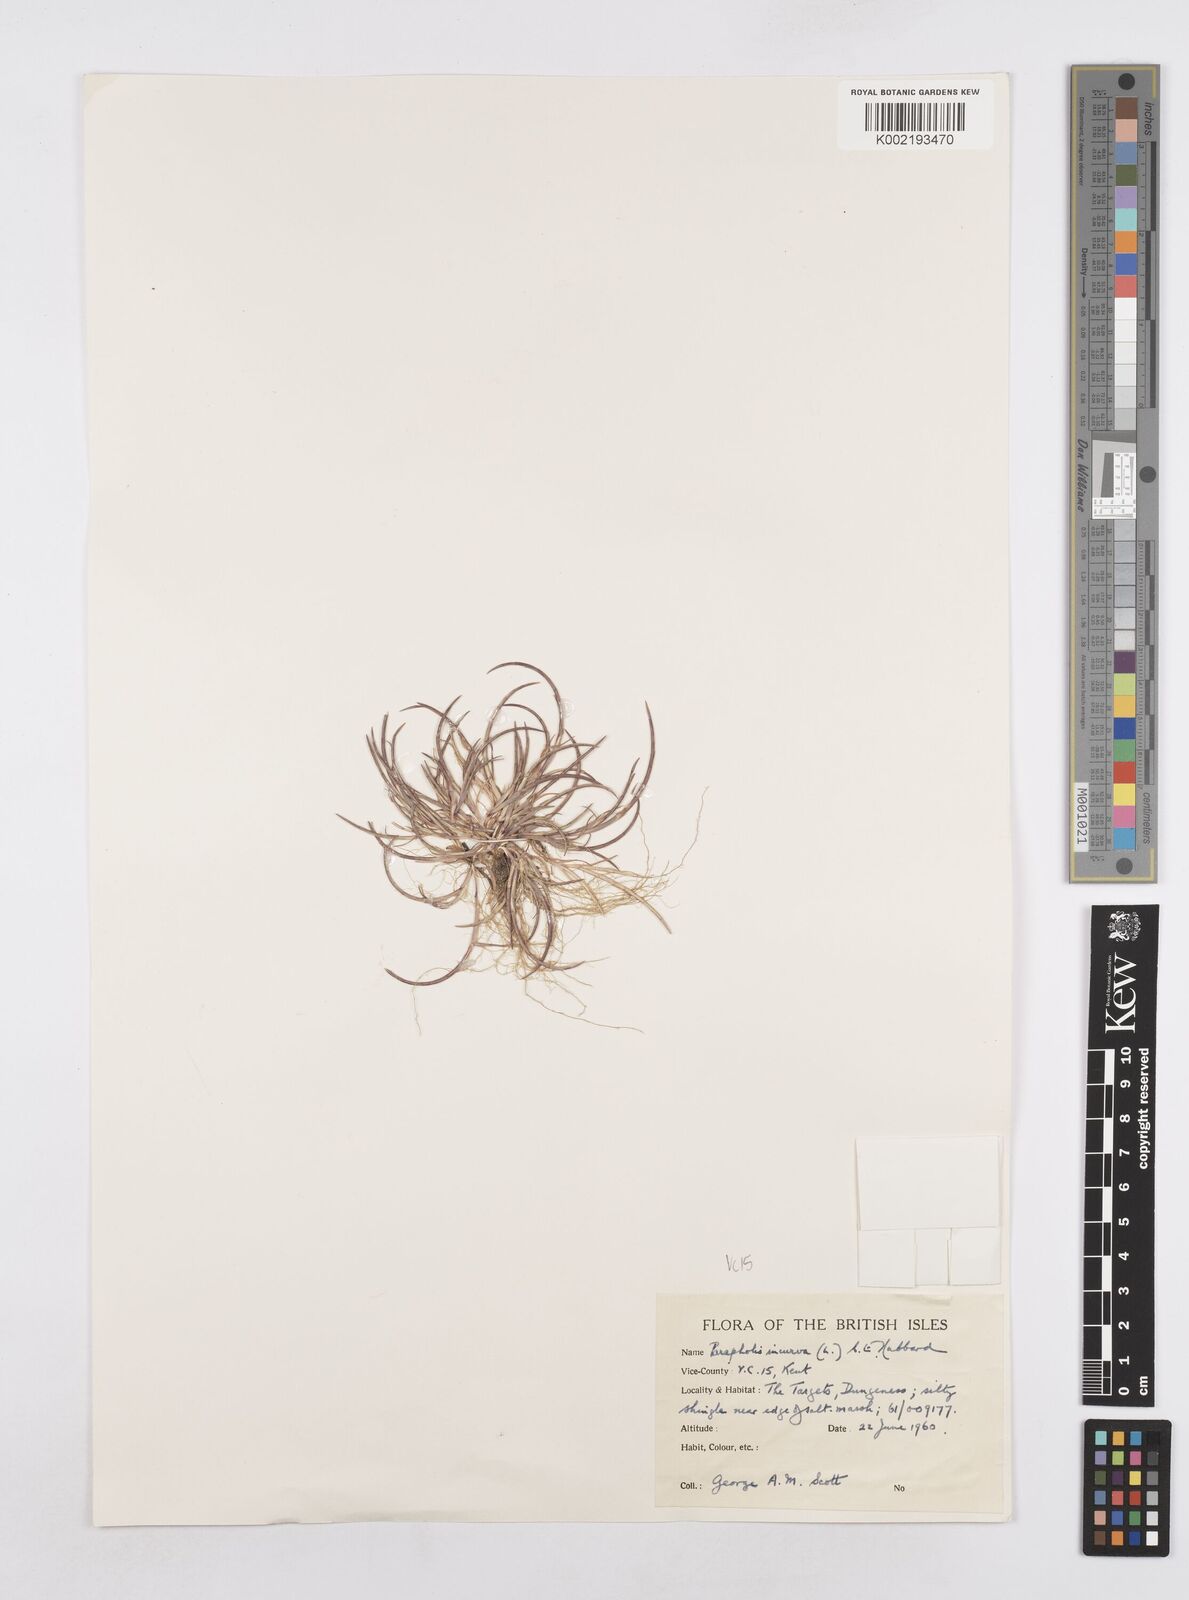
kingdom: Plantae
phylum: Tracheophyta
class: Liliopsida
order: Poales
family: Poaceae
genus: Parapholis
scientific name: Parapholis incurva
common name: Curved sicklegrass
